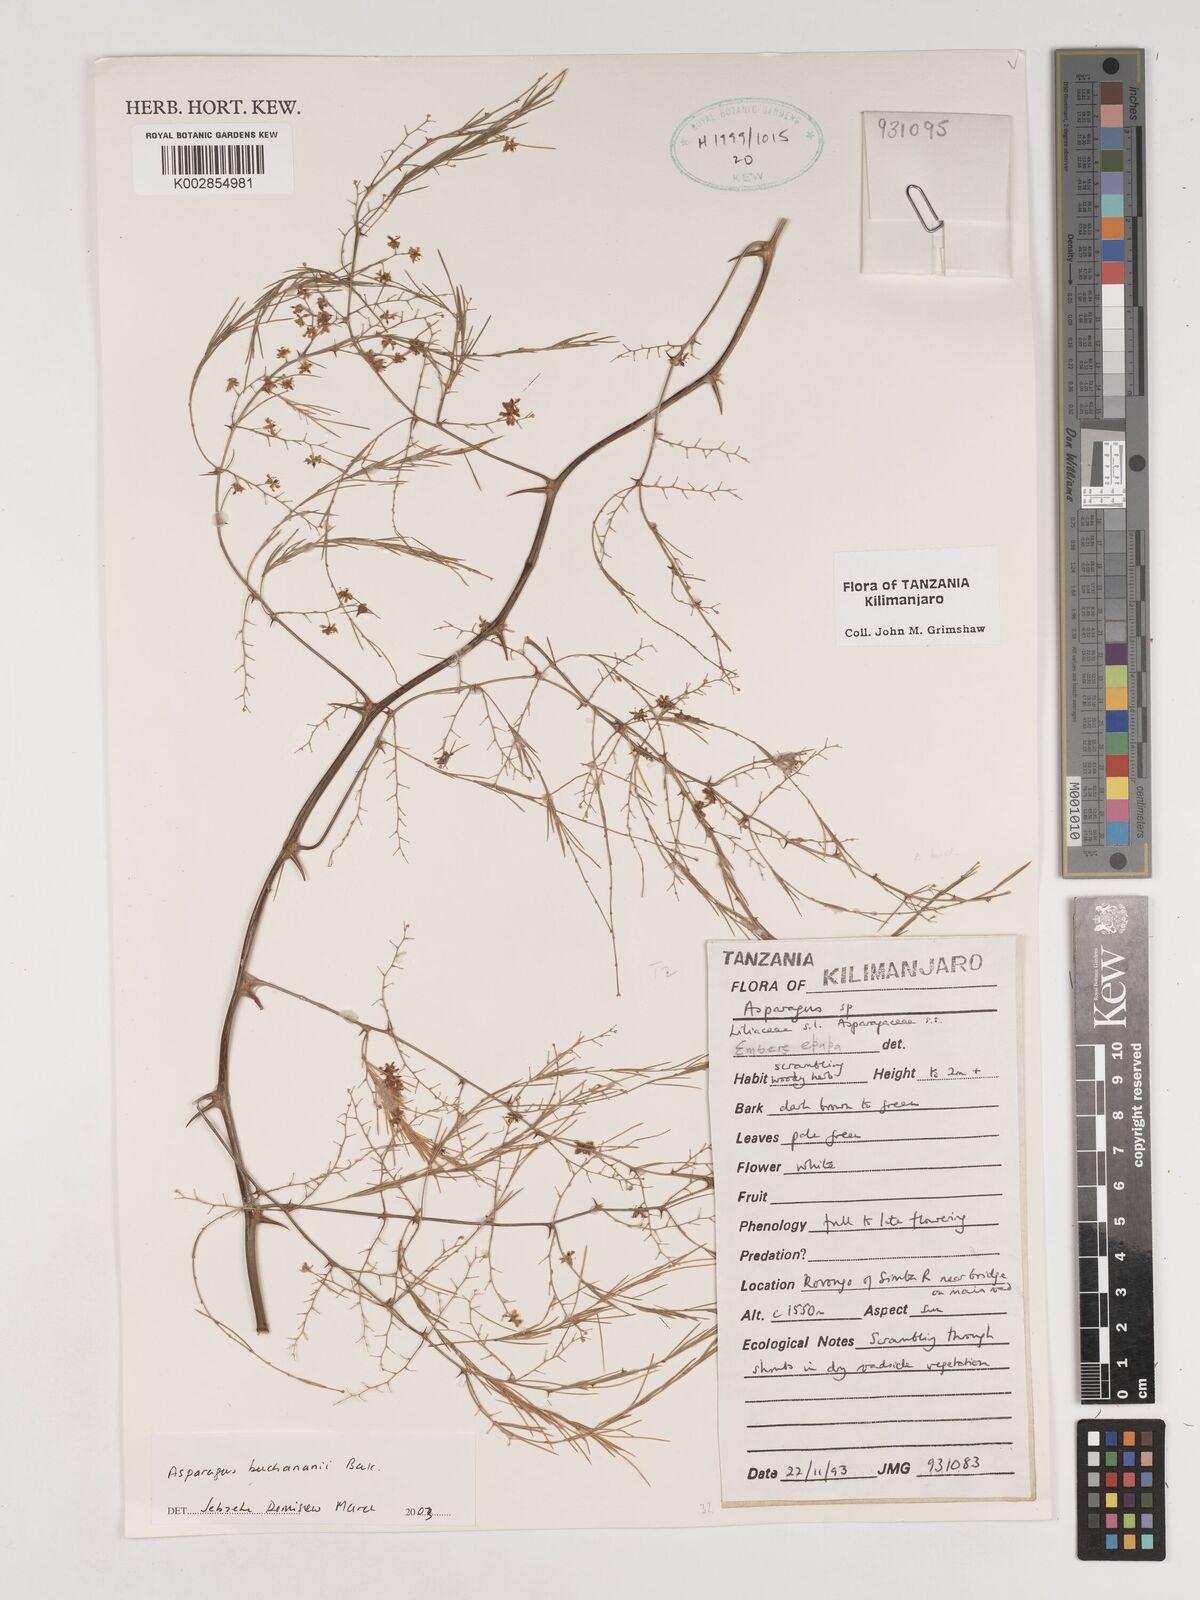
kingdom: Plantae
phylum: Tracheophyta
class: Liliopsida
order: Asparagales
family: Asparagaceae
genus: Asparagus
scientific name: Asparagus buchananii
